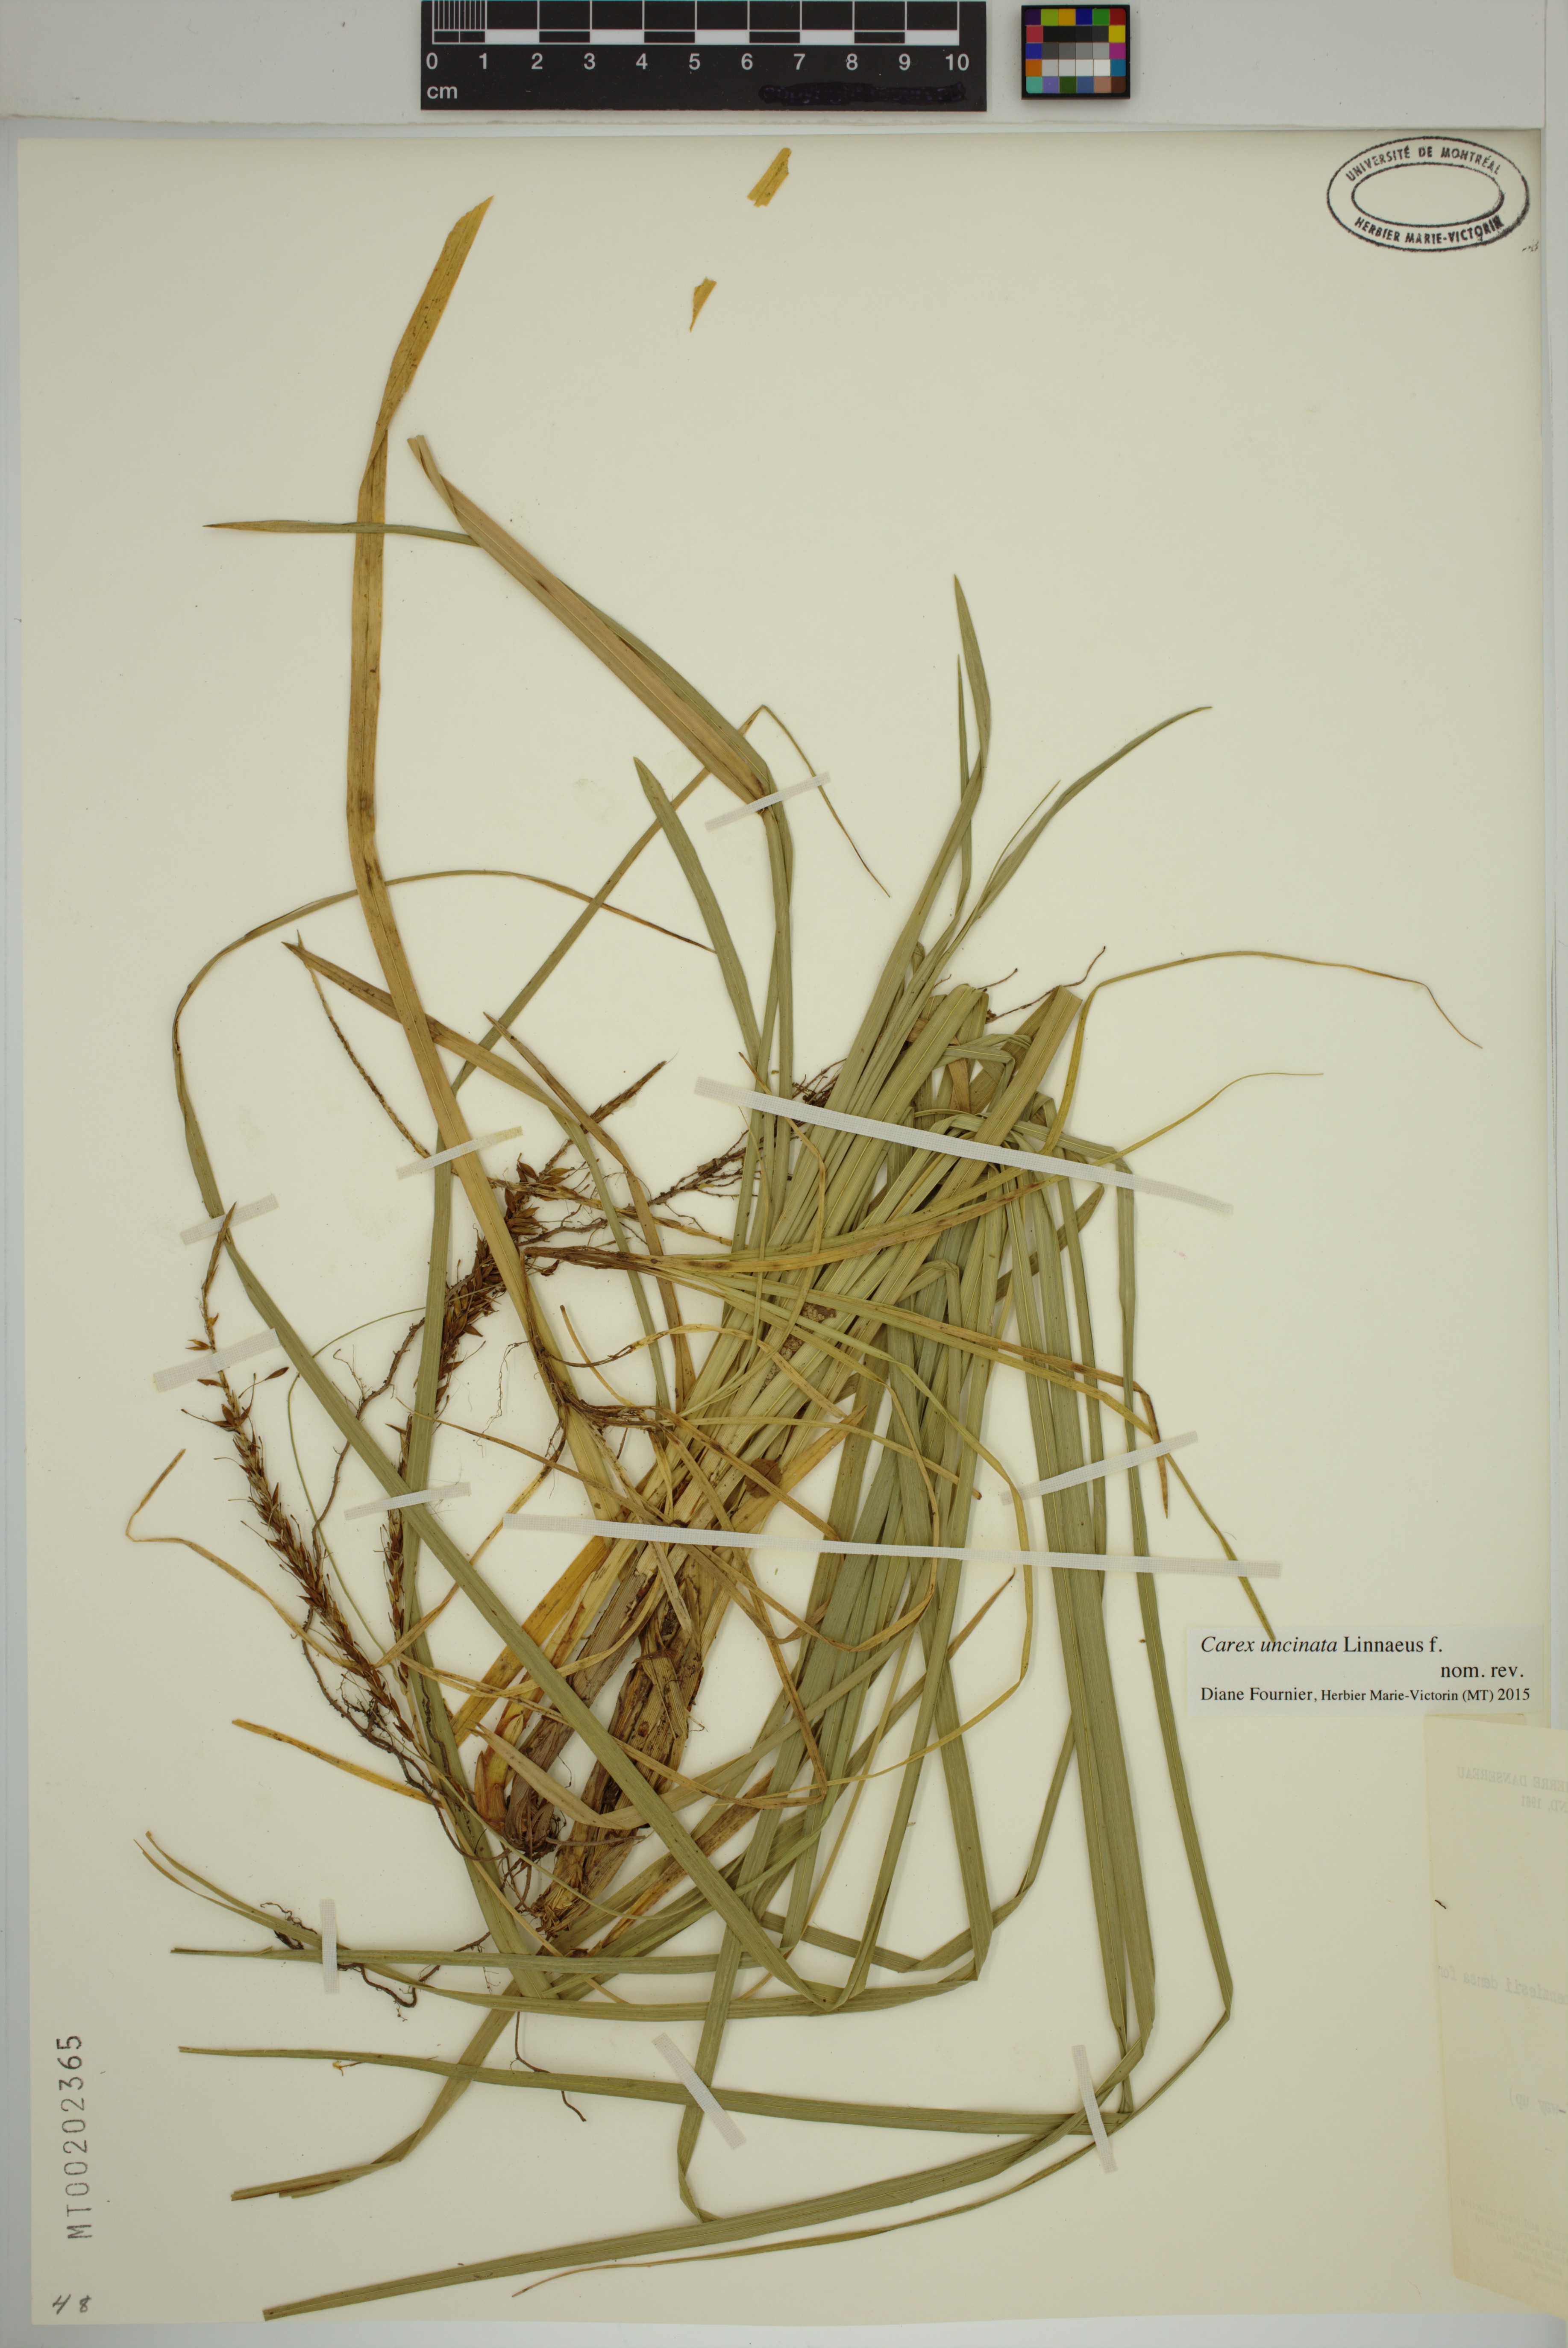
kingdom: Plantae
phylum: Tracheophyta
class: Liliopsida
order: Poales
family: Cyperaceae
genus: Carex
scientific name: Carex uncinata
